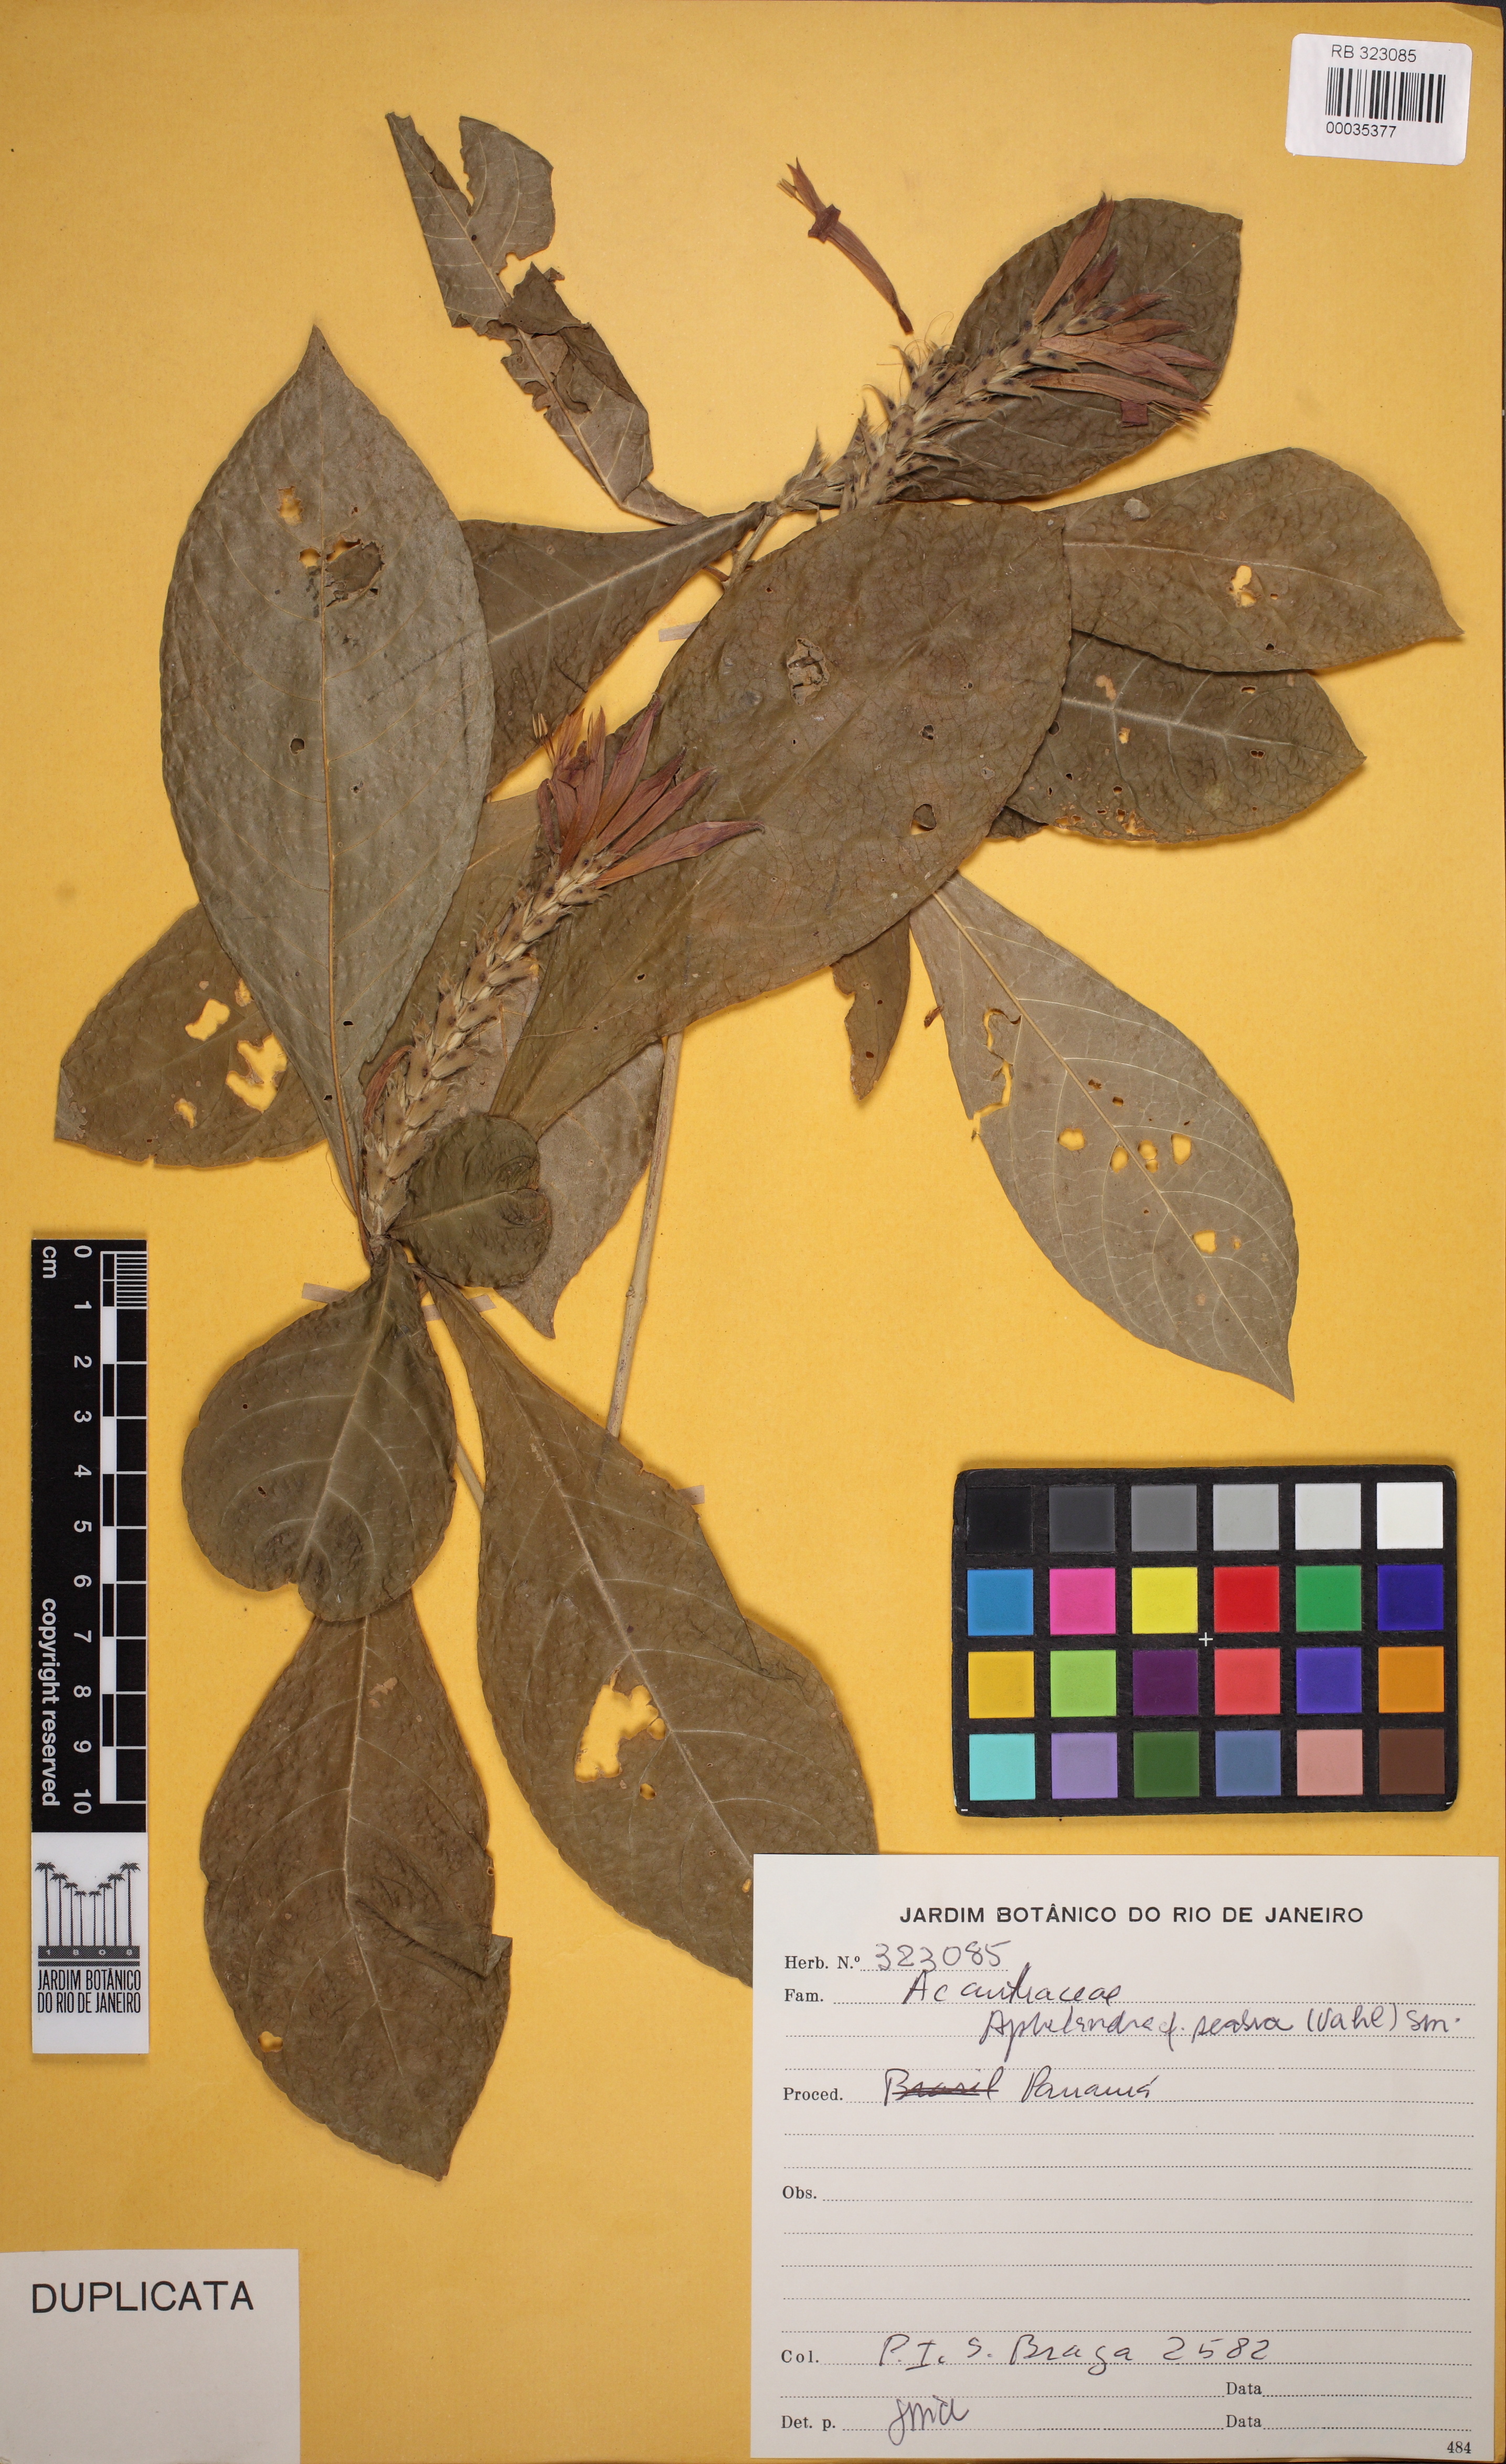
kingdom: Plantae
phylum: Tracheophyta
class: Magnoliopsida
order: Lamiales
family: Acanthaceae
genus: Aphelandra
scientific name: Aphelandra scabra
